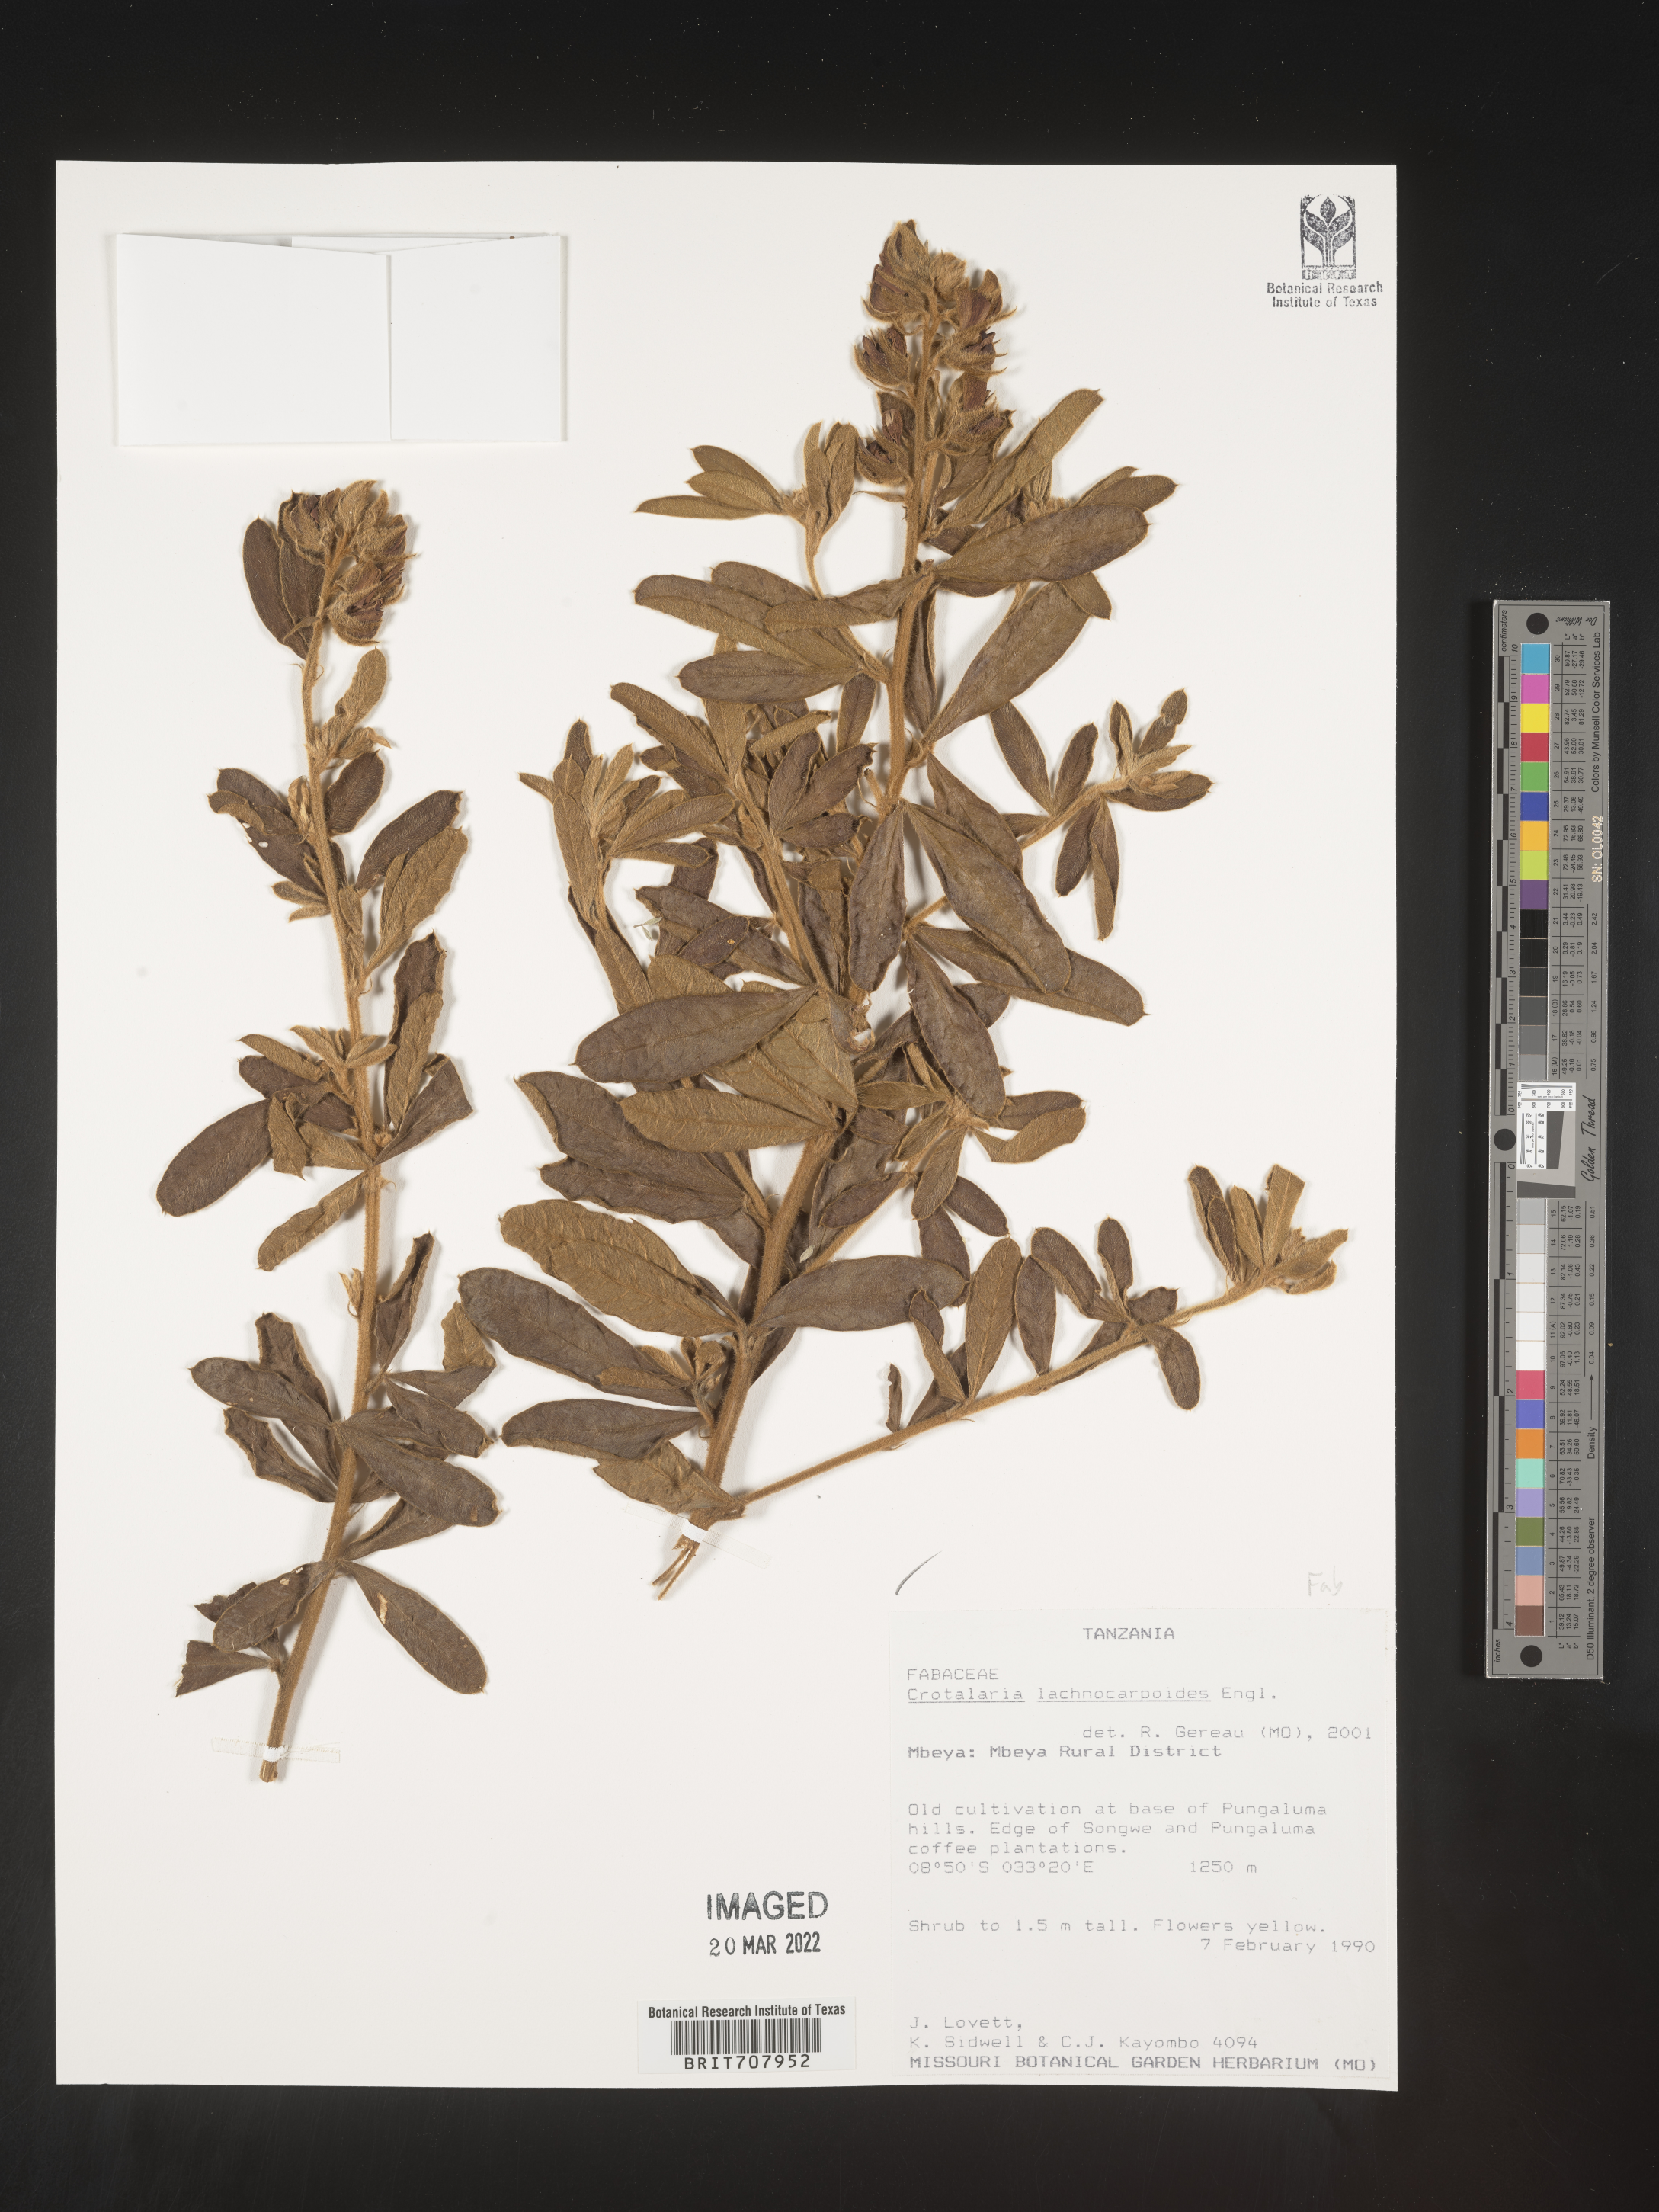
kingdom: Plantae
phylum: Tracheophyta
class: Magnoliopsida
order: Fabales
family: Fabaceae
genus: Crotalaria
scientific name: Crotalaria
